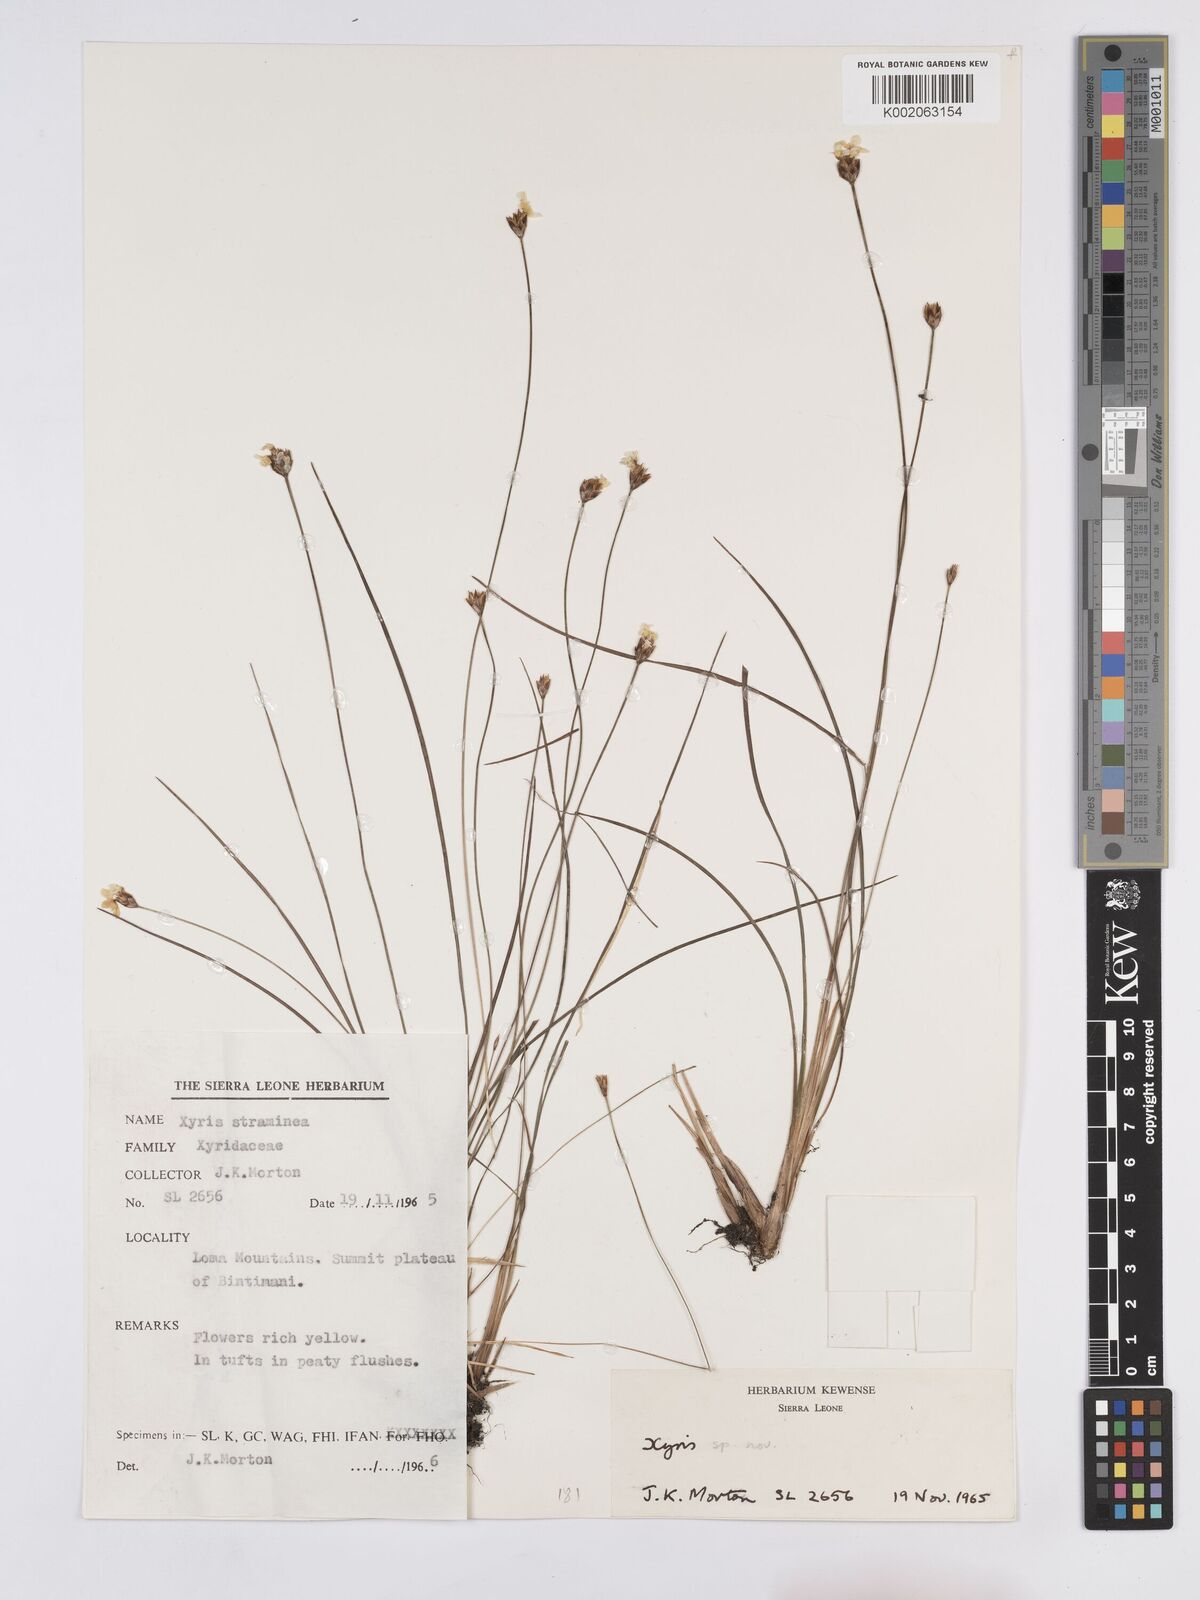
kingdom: Plantae
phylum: Tracheophyta
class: Liliopsida
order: Poales
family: Xyridaceae
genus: Xyris
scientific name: Xyris festucifolia
